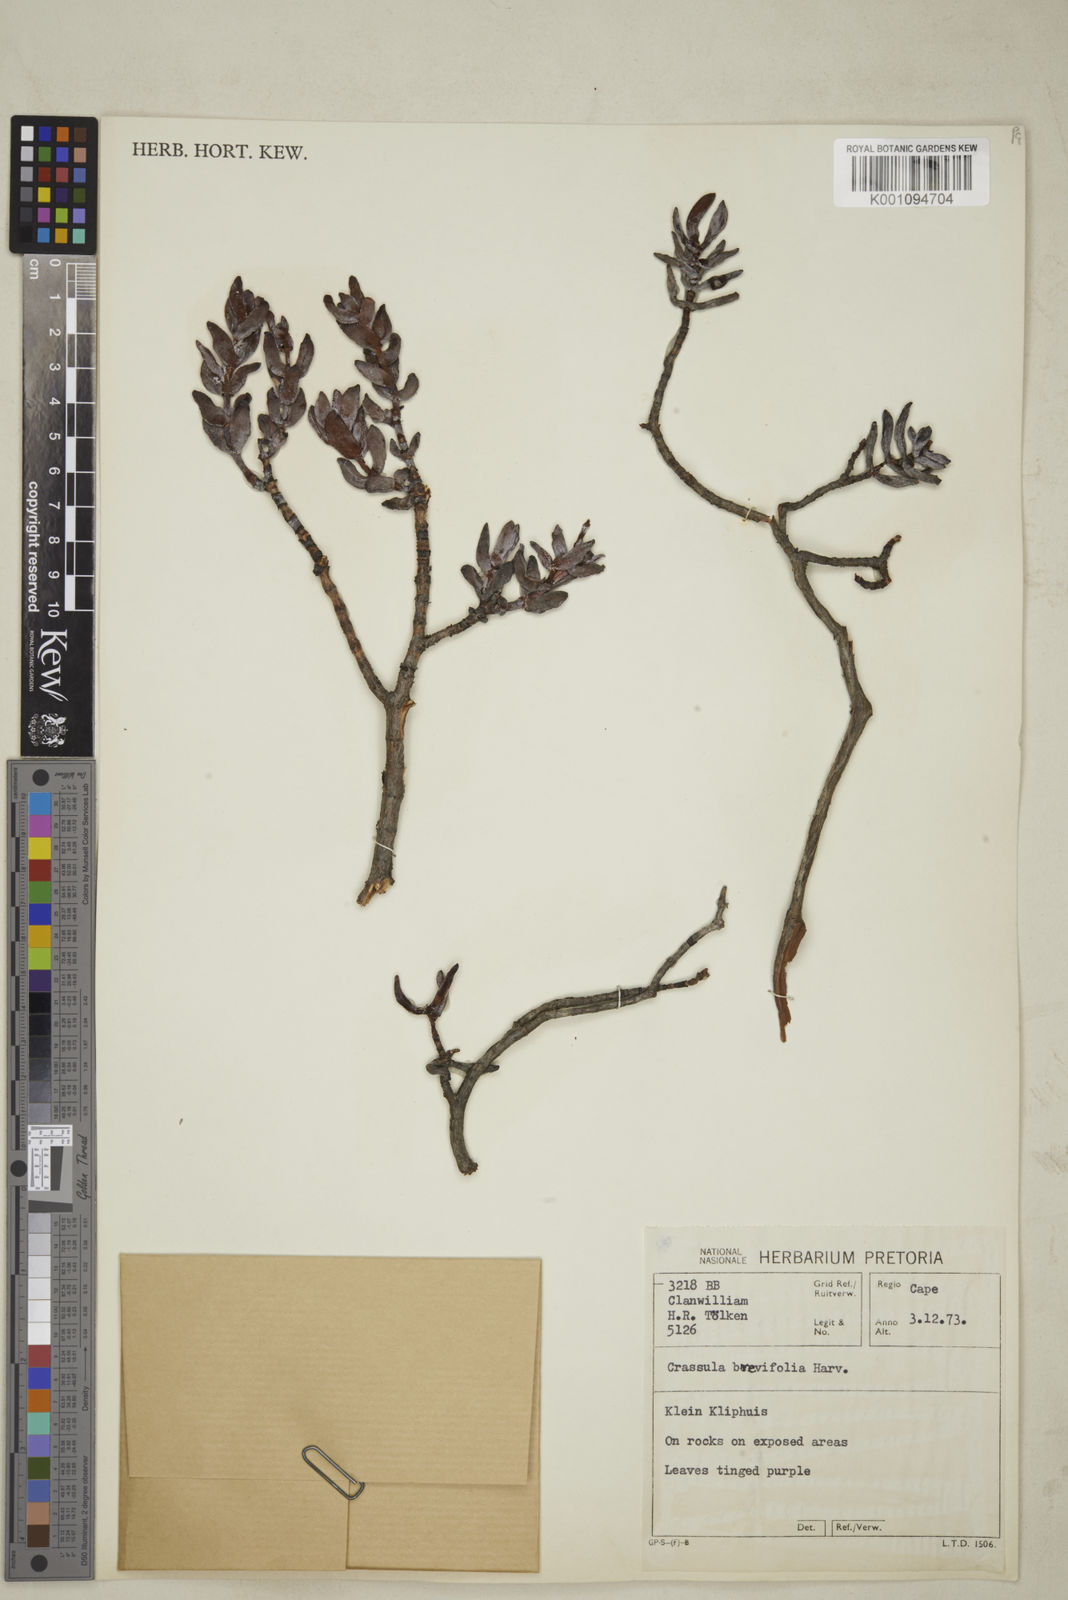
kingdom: Plantae
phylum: Tracheophyta
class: Magnoliopsida
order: Saxifragales
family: Crassulaceae
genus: Crassula
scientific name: Crassula brevifolia
